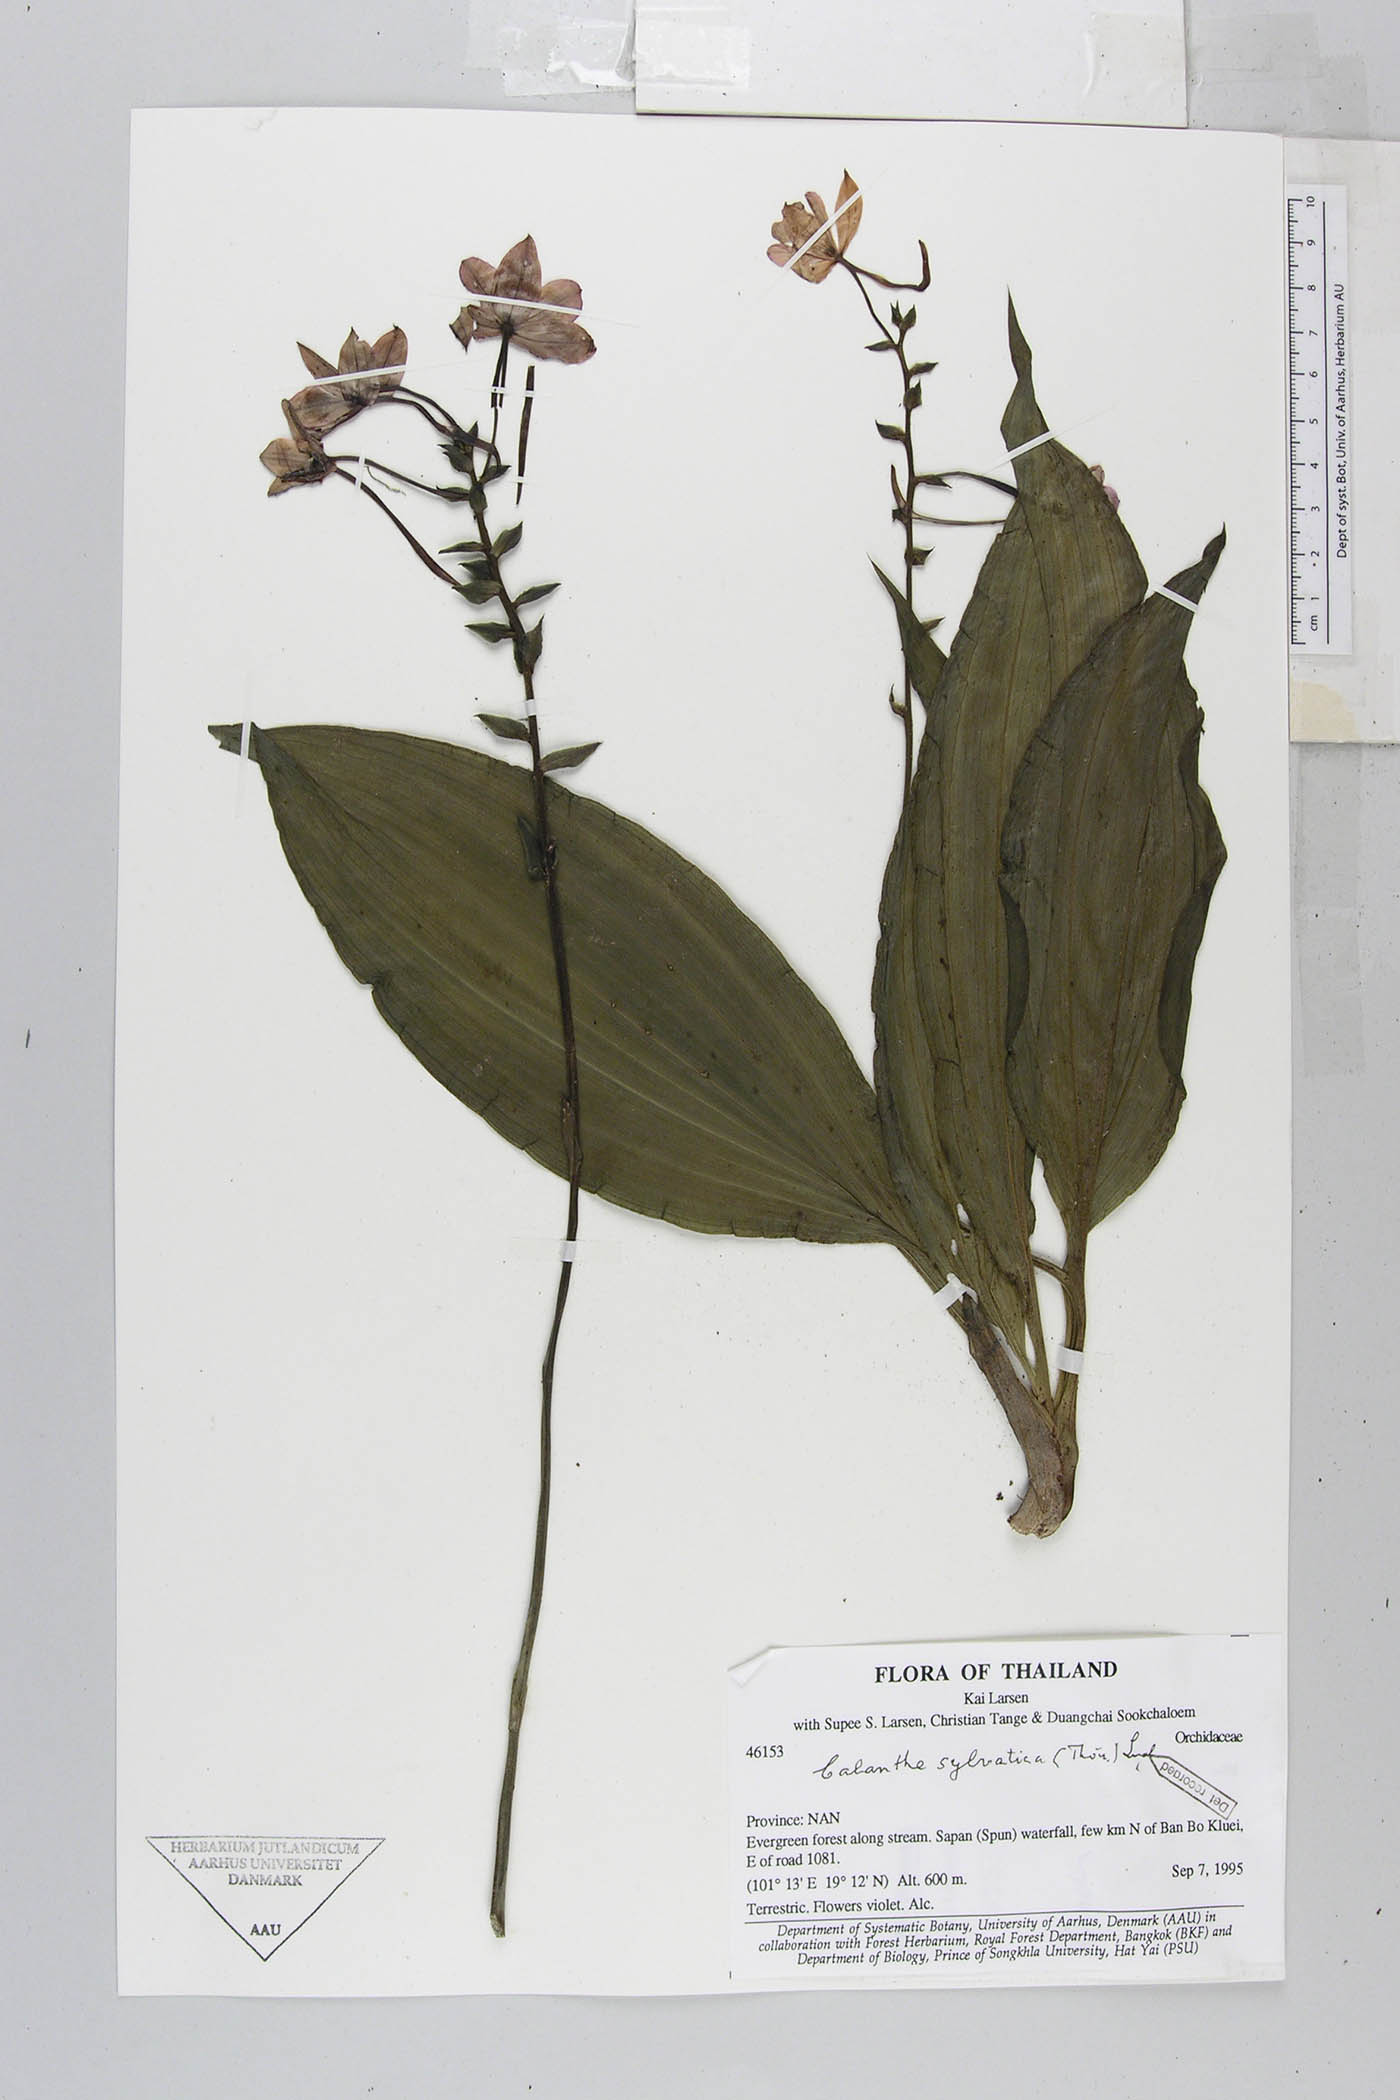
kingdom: Plantae
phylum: Tracheophyta
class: Liliopsida
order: Asparagales
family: Orchidaceae
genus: Calanthe
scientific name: Calanthe sylvatica
